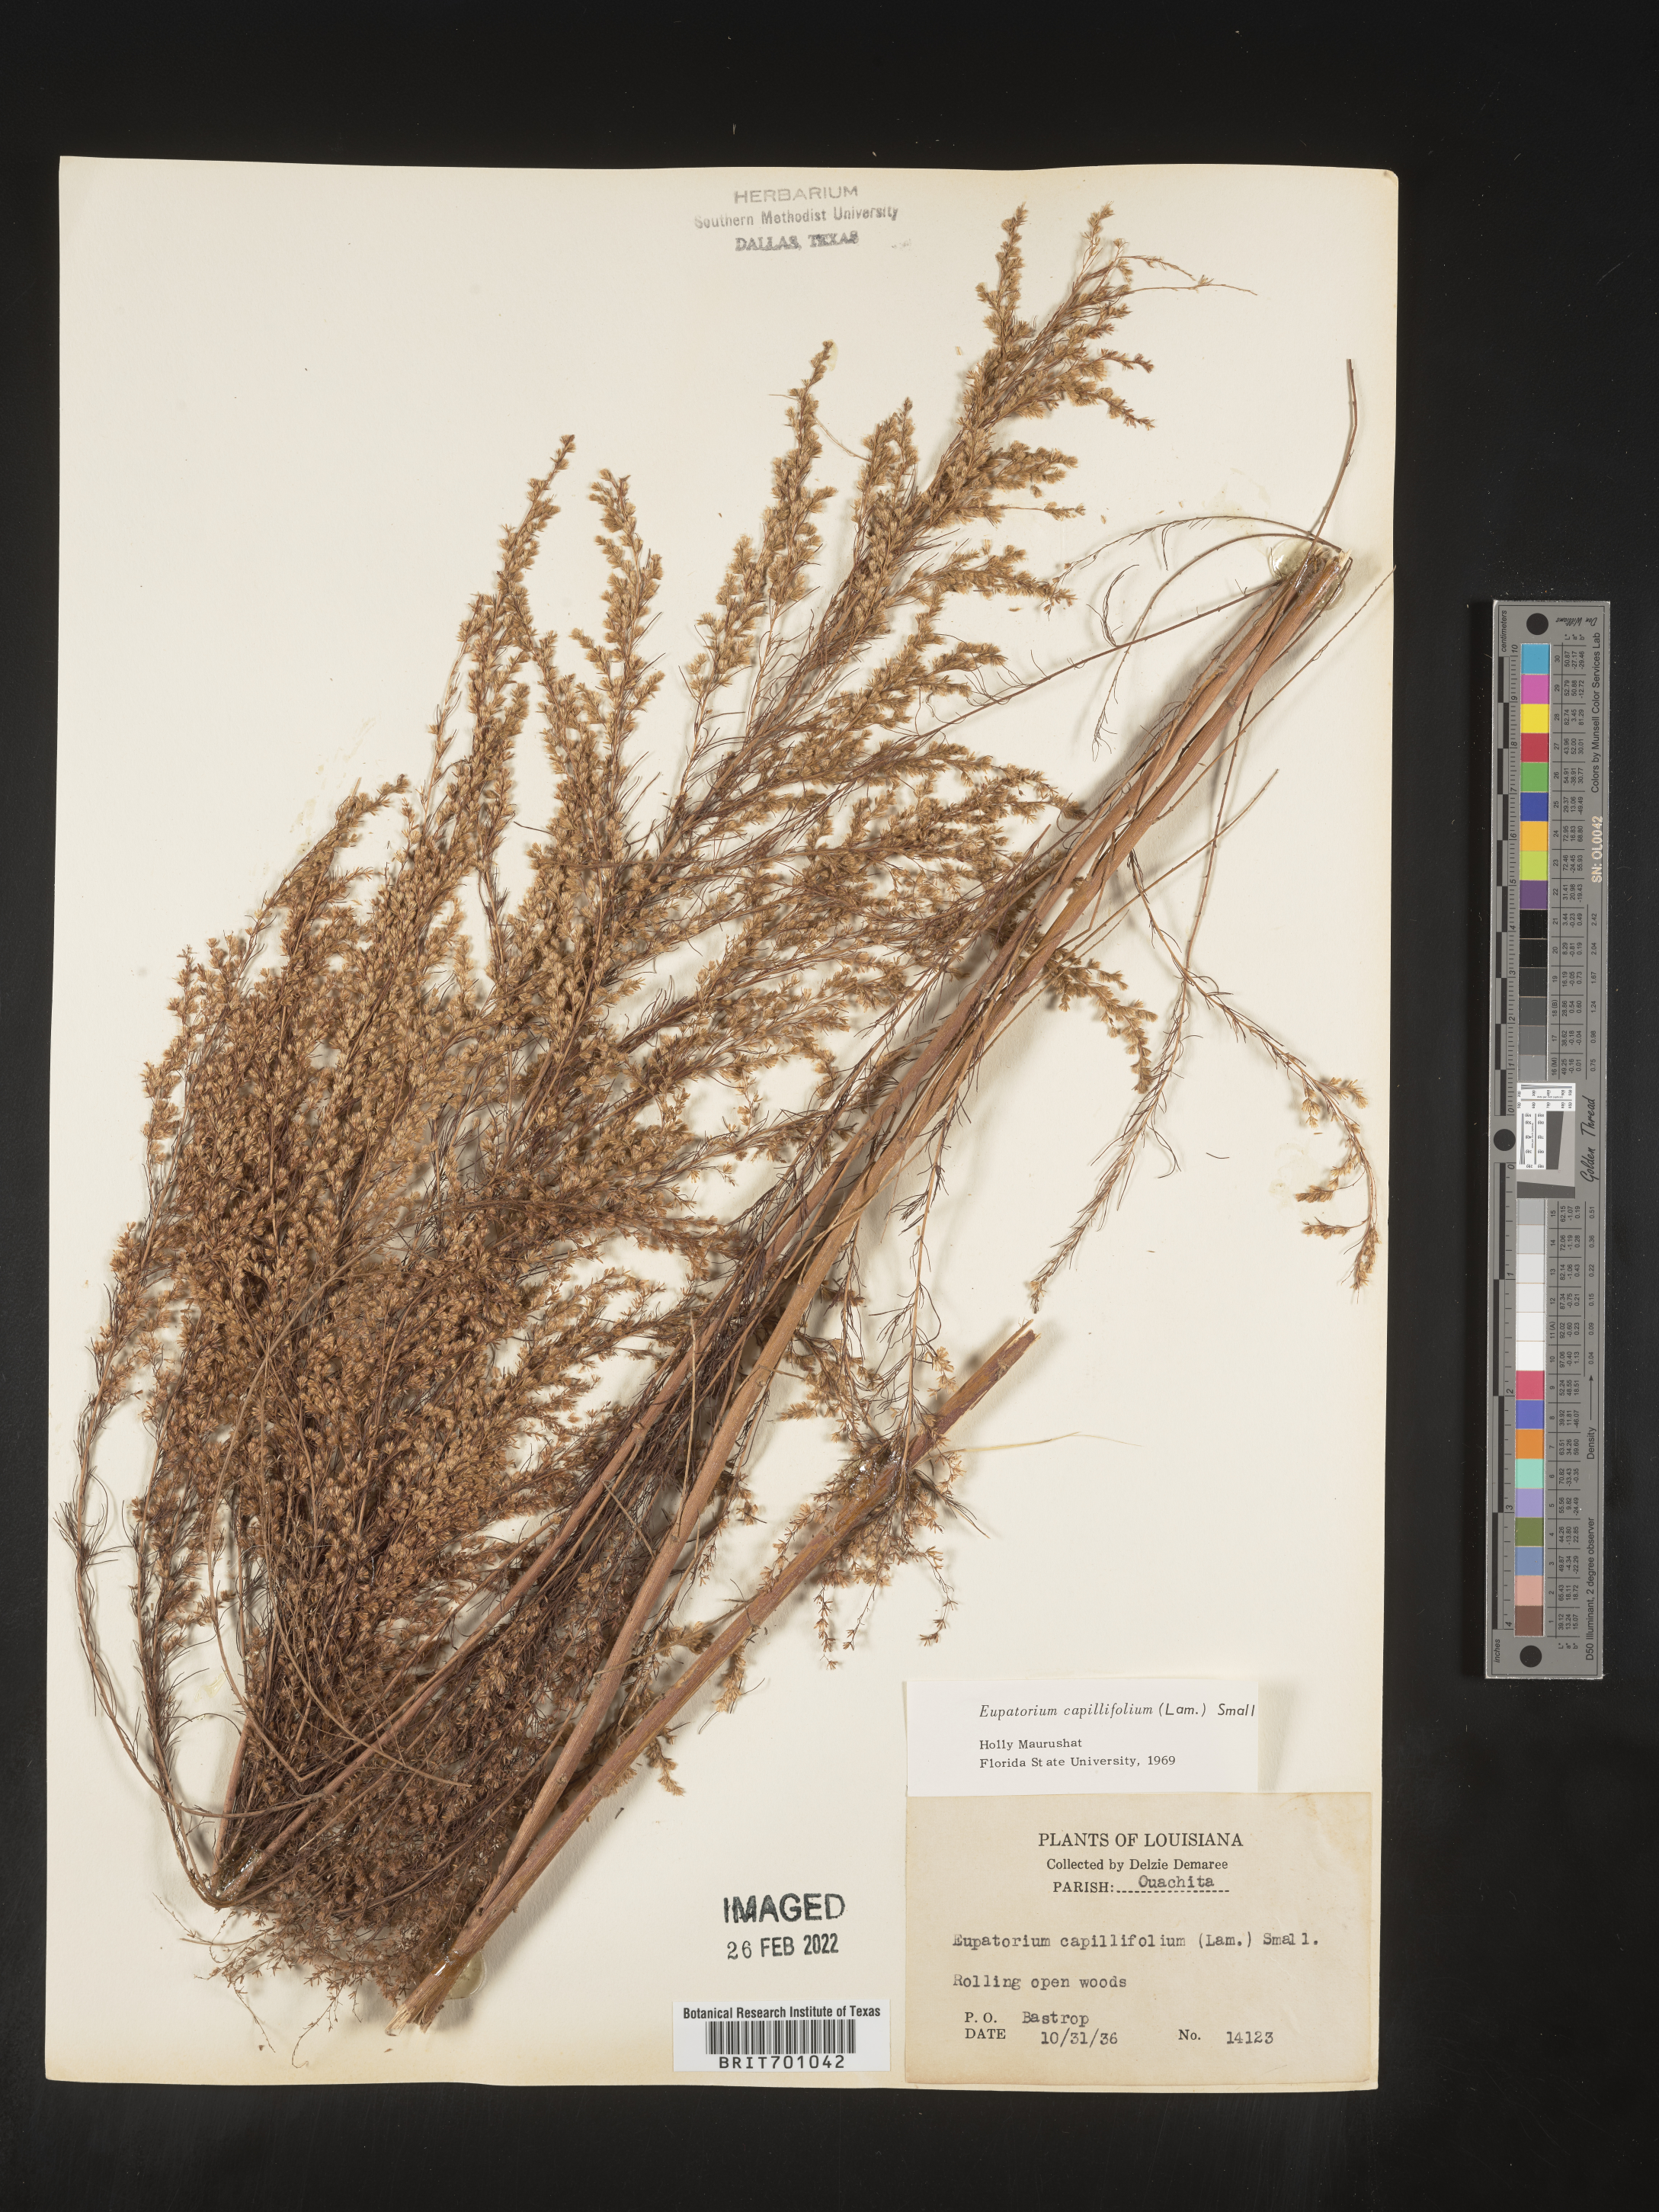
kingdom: Plantae
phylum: Tracheophyta
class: Magnoliopsida
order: Asterales
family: Asteraceae
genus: Eupatorium
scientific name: Eupatorium capillifolium
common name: Dog-fennel
